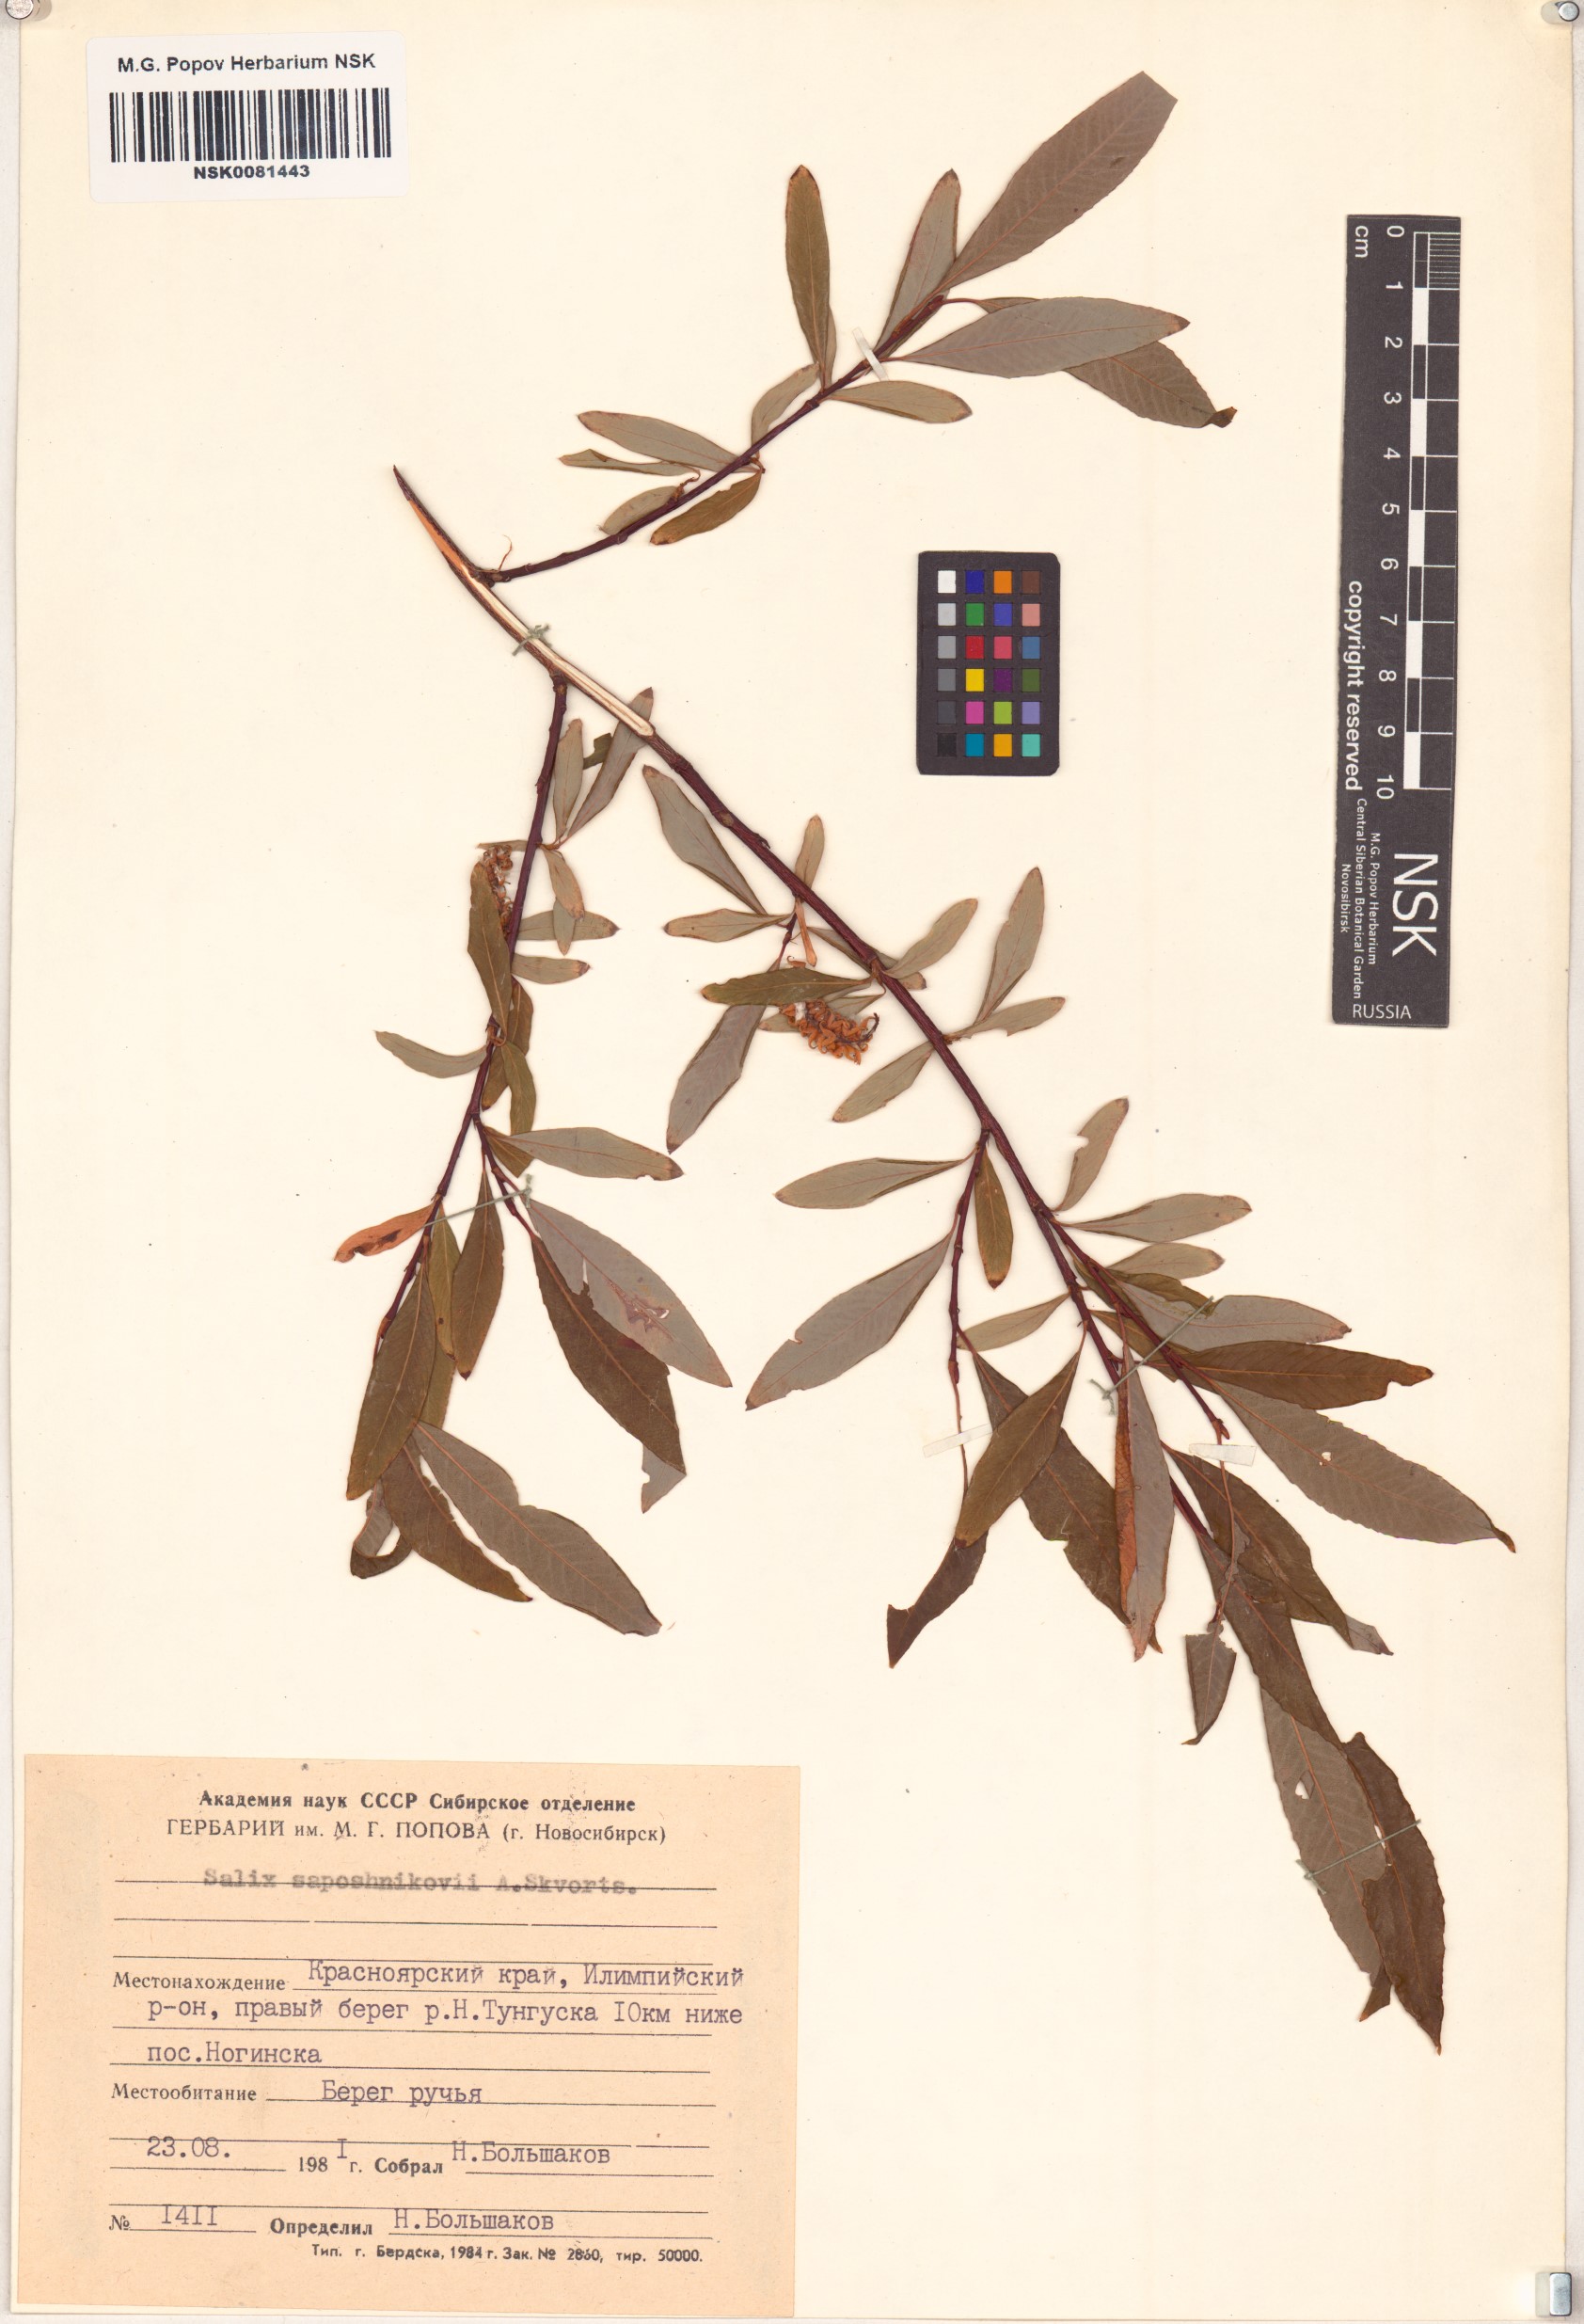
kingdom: Plantae
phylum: Tracheophyta
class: Magnoliopsida
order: Malpighiales
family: Salicaceae
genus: Salix
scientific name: Salix saposhnikovii
